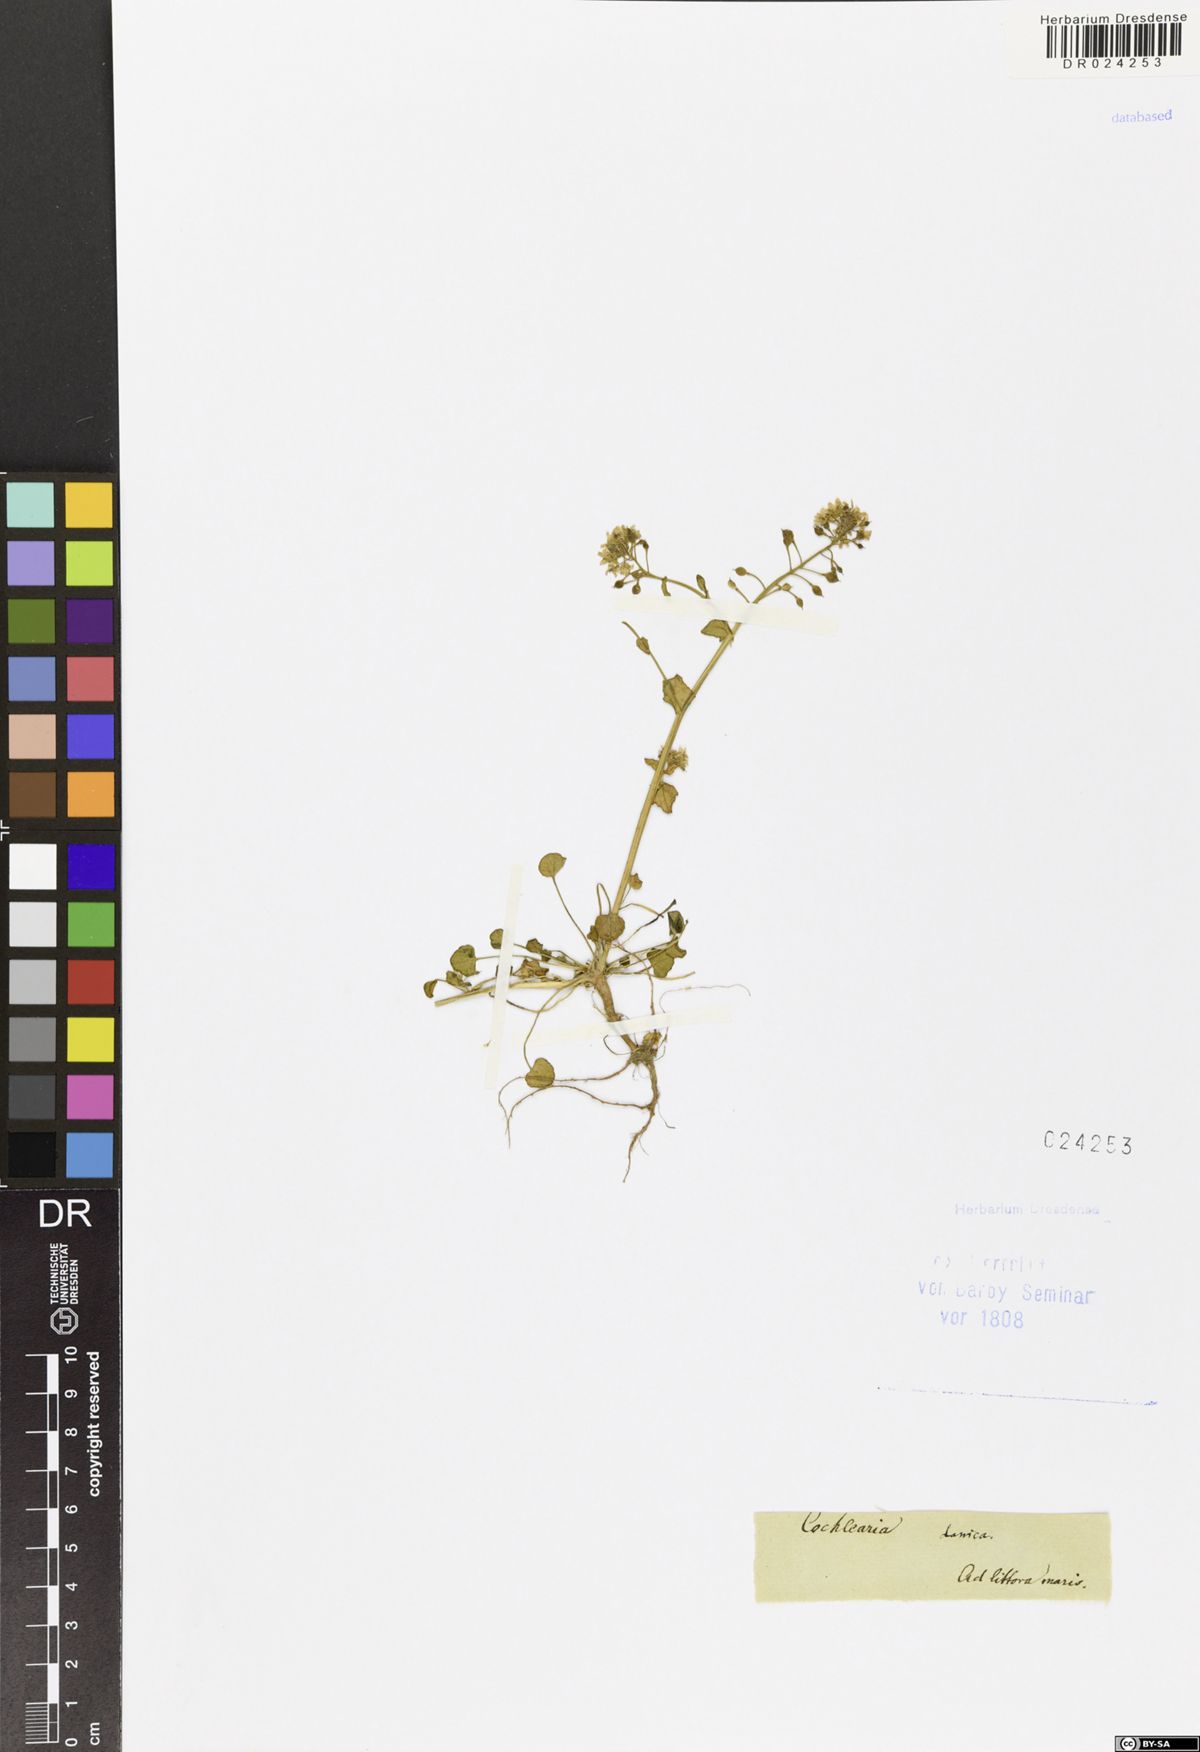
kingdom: Plantae
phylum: Tracheophyta
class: Magnoliopsida
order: Brassicales
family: Brassicaceae
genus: Cochlearia
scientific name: Cochlearia danica
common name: Early scurvygrass
